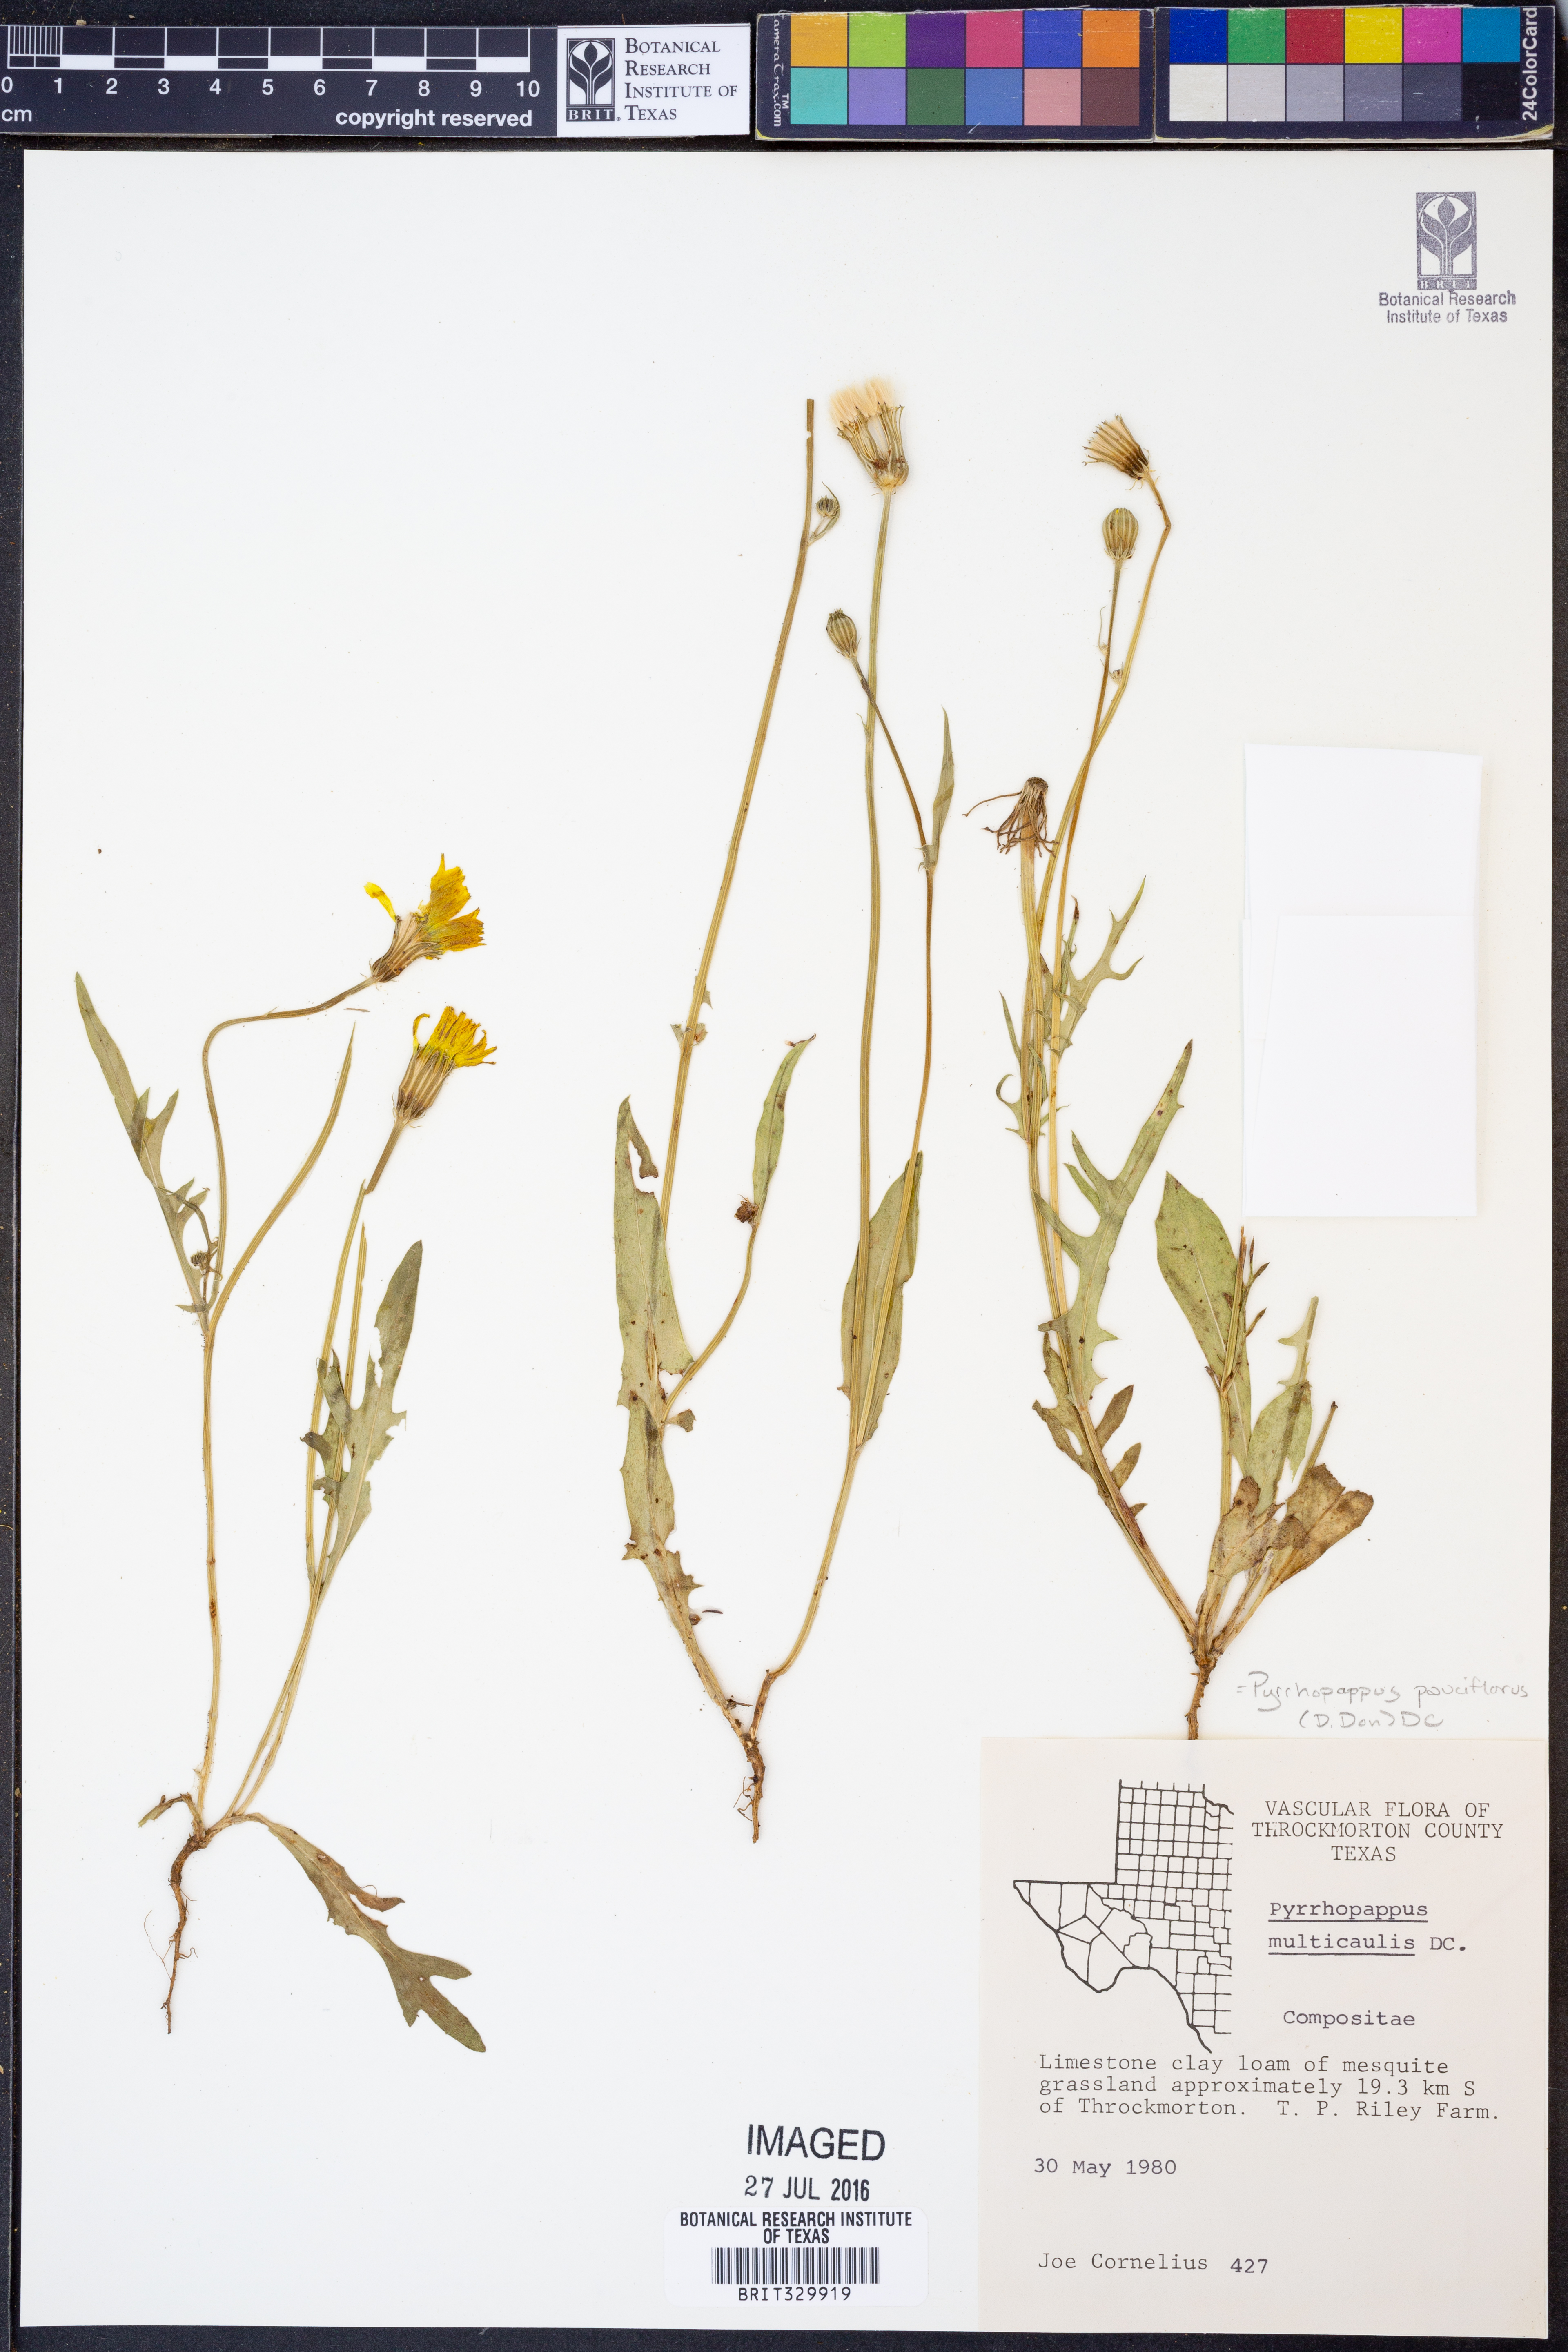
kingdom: Plantae
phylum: Tracheophyta
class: Magnoliopsida
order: Asterales
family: Asteraceae
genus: Pyrrhopappus
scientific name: Pyrrhopappus pauciflorus
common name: Texas false dandelion
